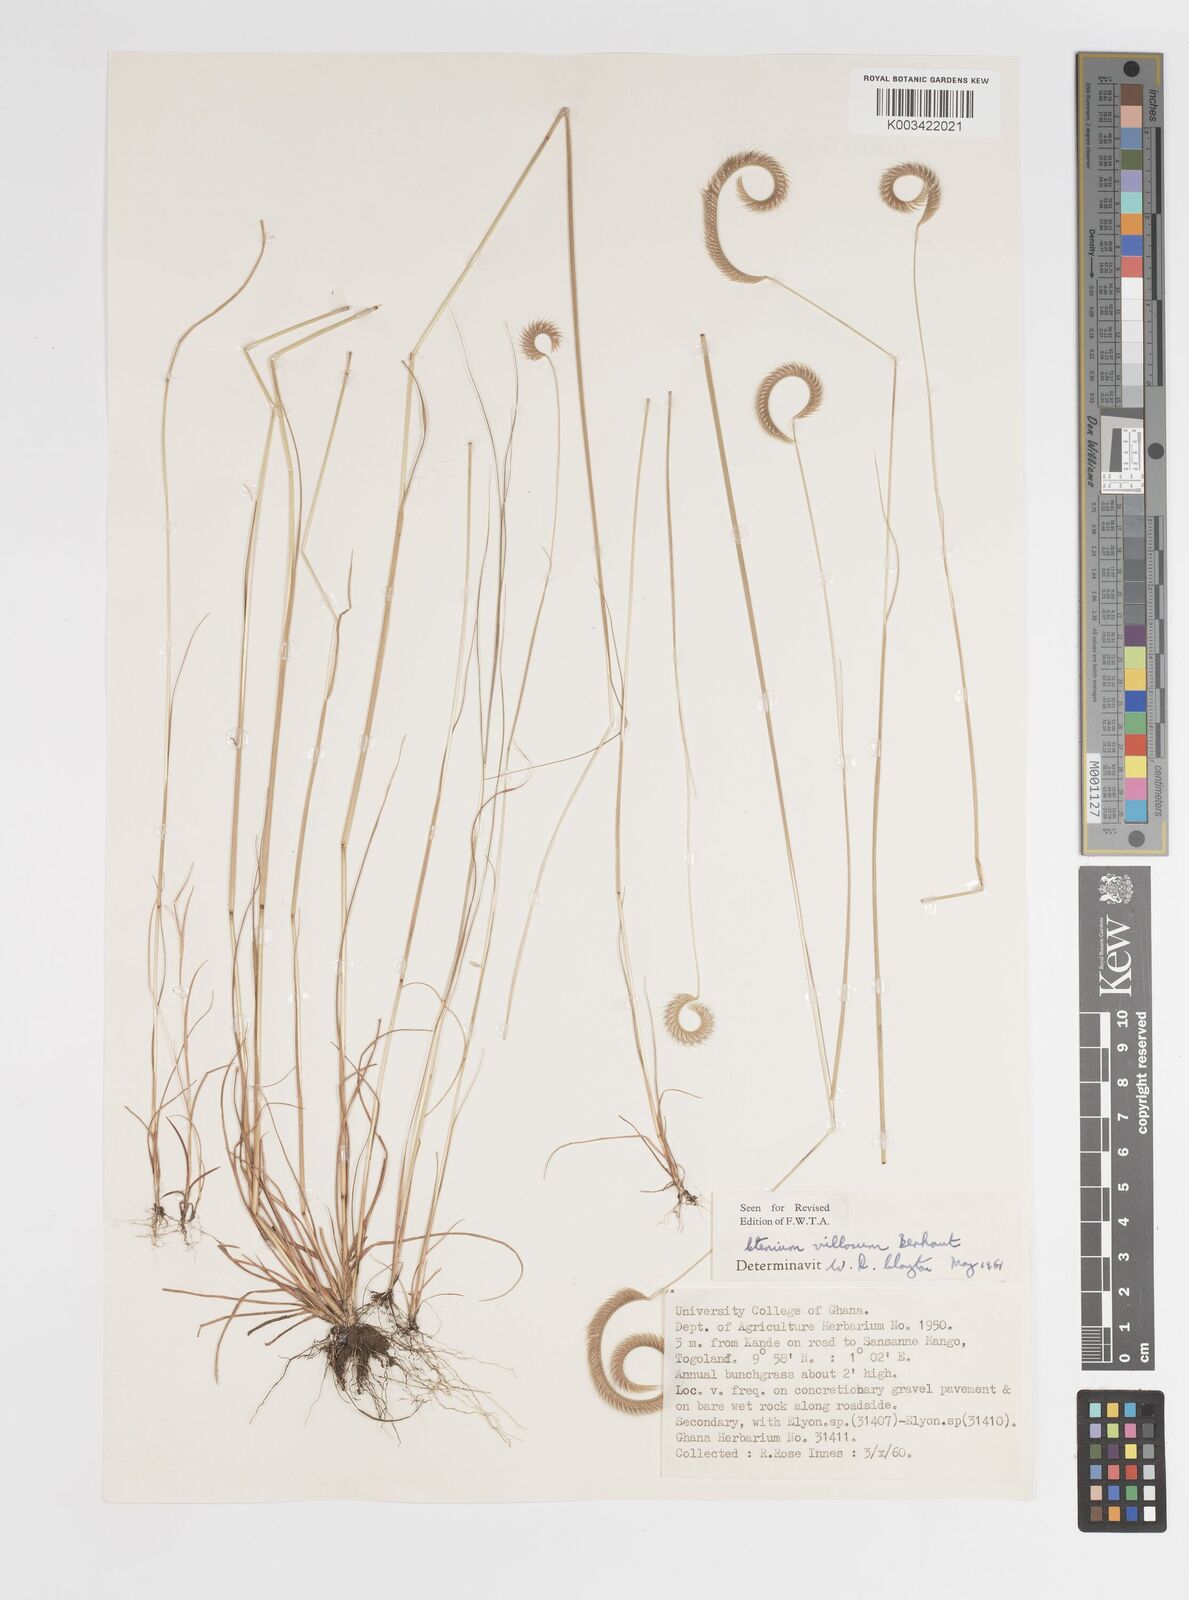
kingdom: Plantae
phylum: Tracheophyta
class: Liliopsida
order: Poales
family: Poaceae
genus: Ctenium
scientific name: Ctenium villosum
